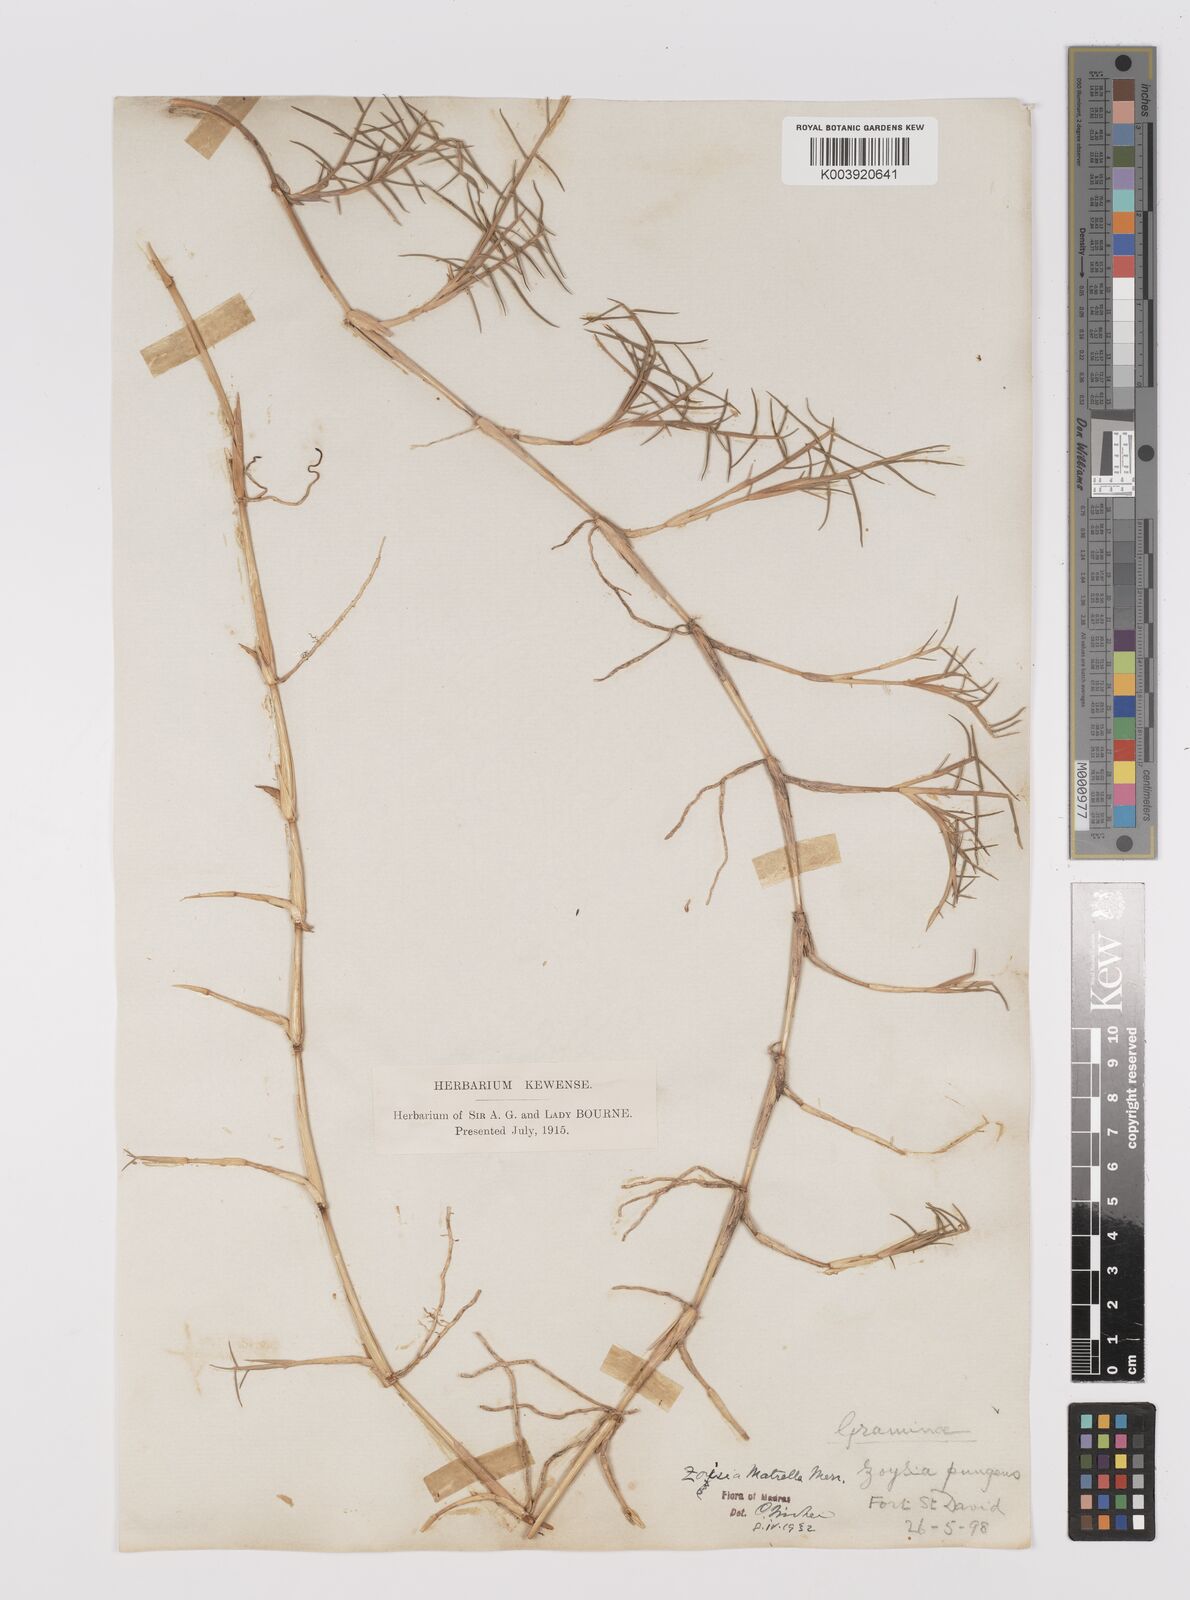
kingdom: Plantae
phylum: Tracheophyta
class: Liliopsida
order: Poales
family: Poaceae
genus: Zoysia
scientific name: Zoysia matrella
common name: Manila grass
